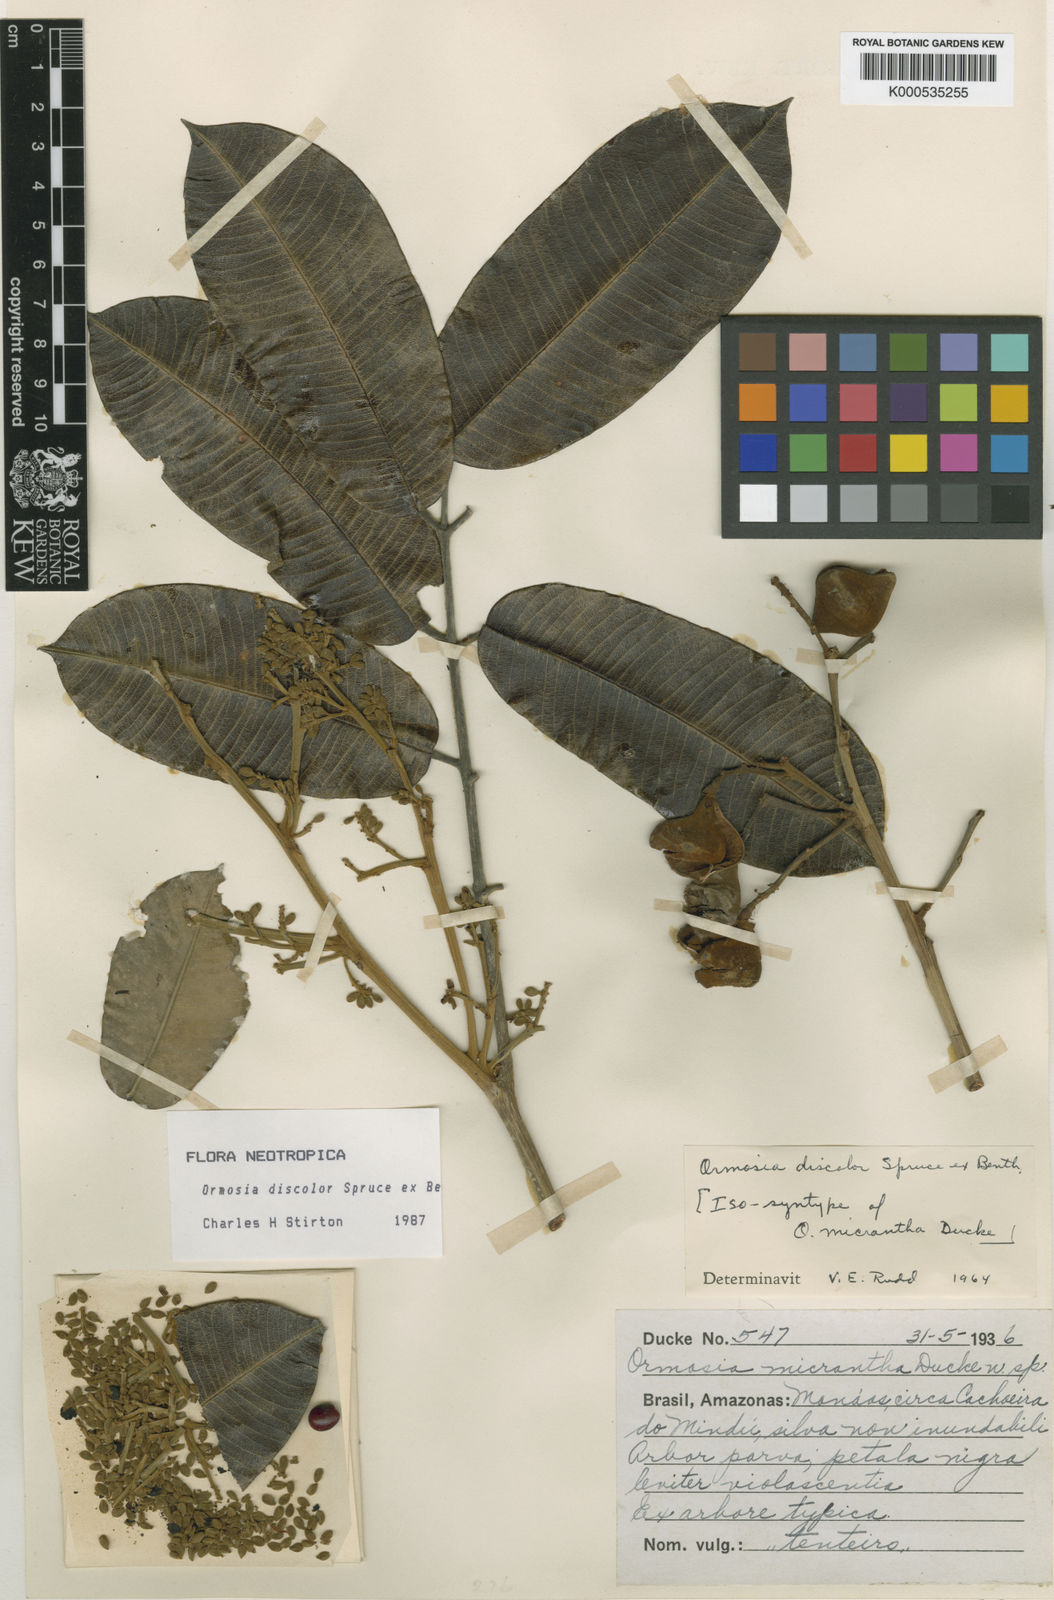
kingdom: Plantae
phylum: Tracheophyta
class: Magnoliopsida
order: Fabales
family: Fabaceae
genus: Ormosia
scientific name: Ormosia discolor
